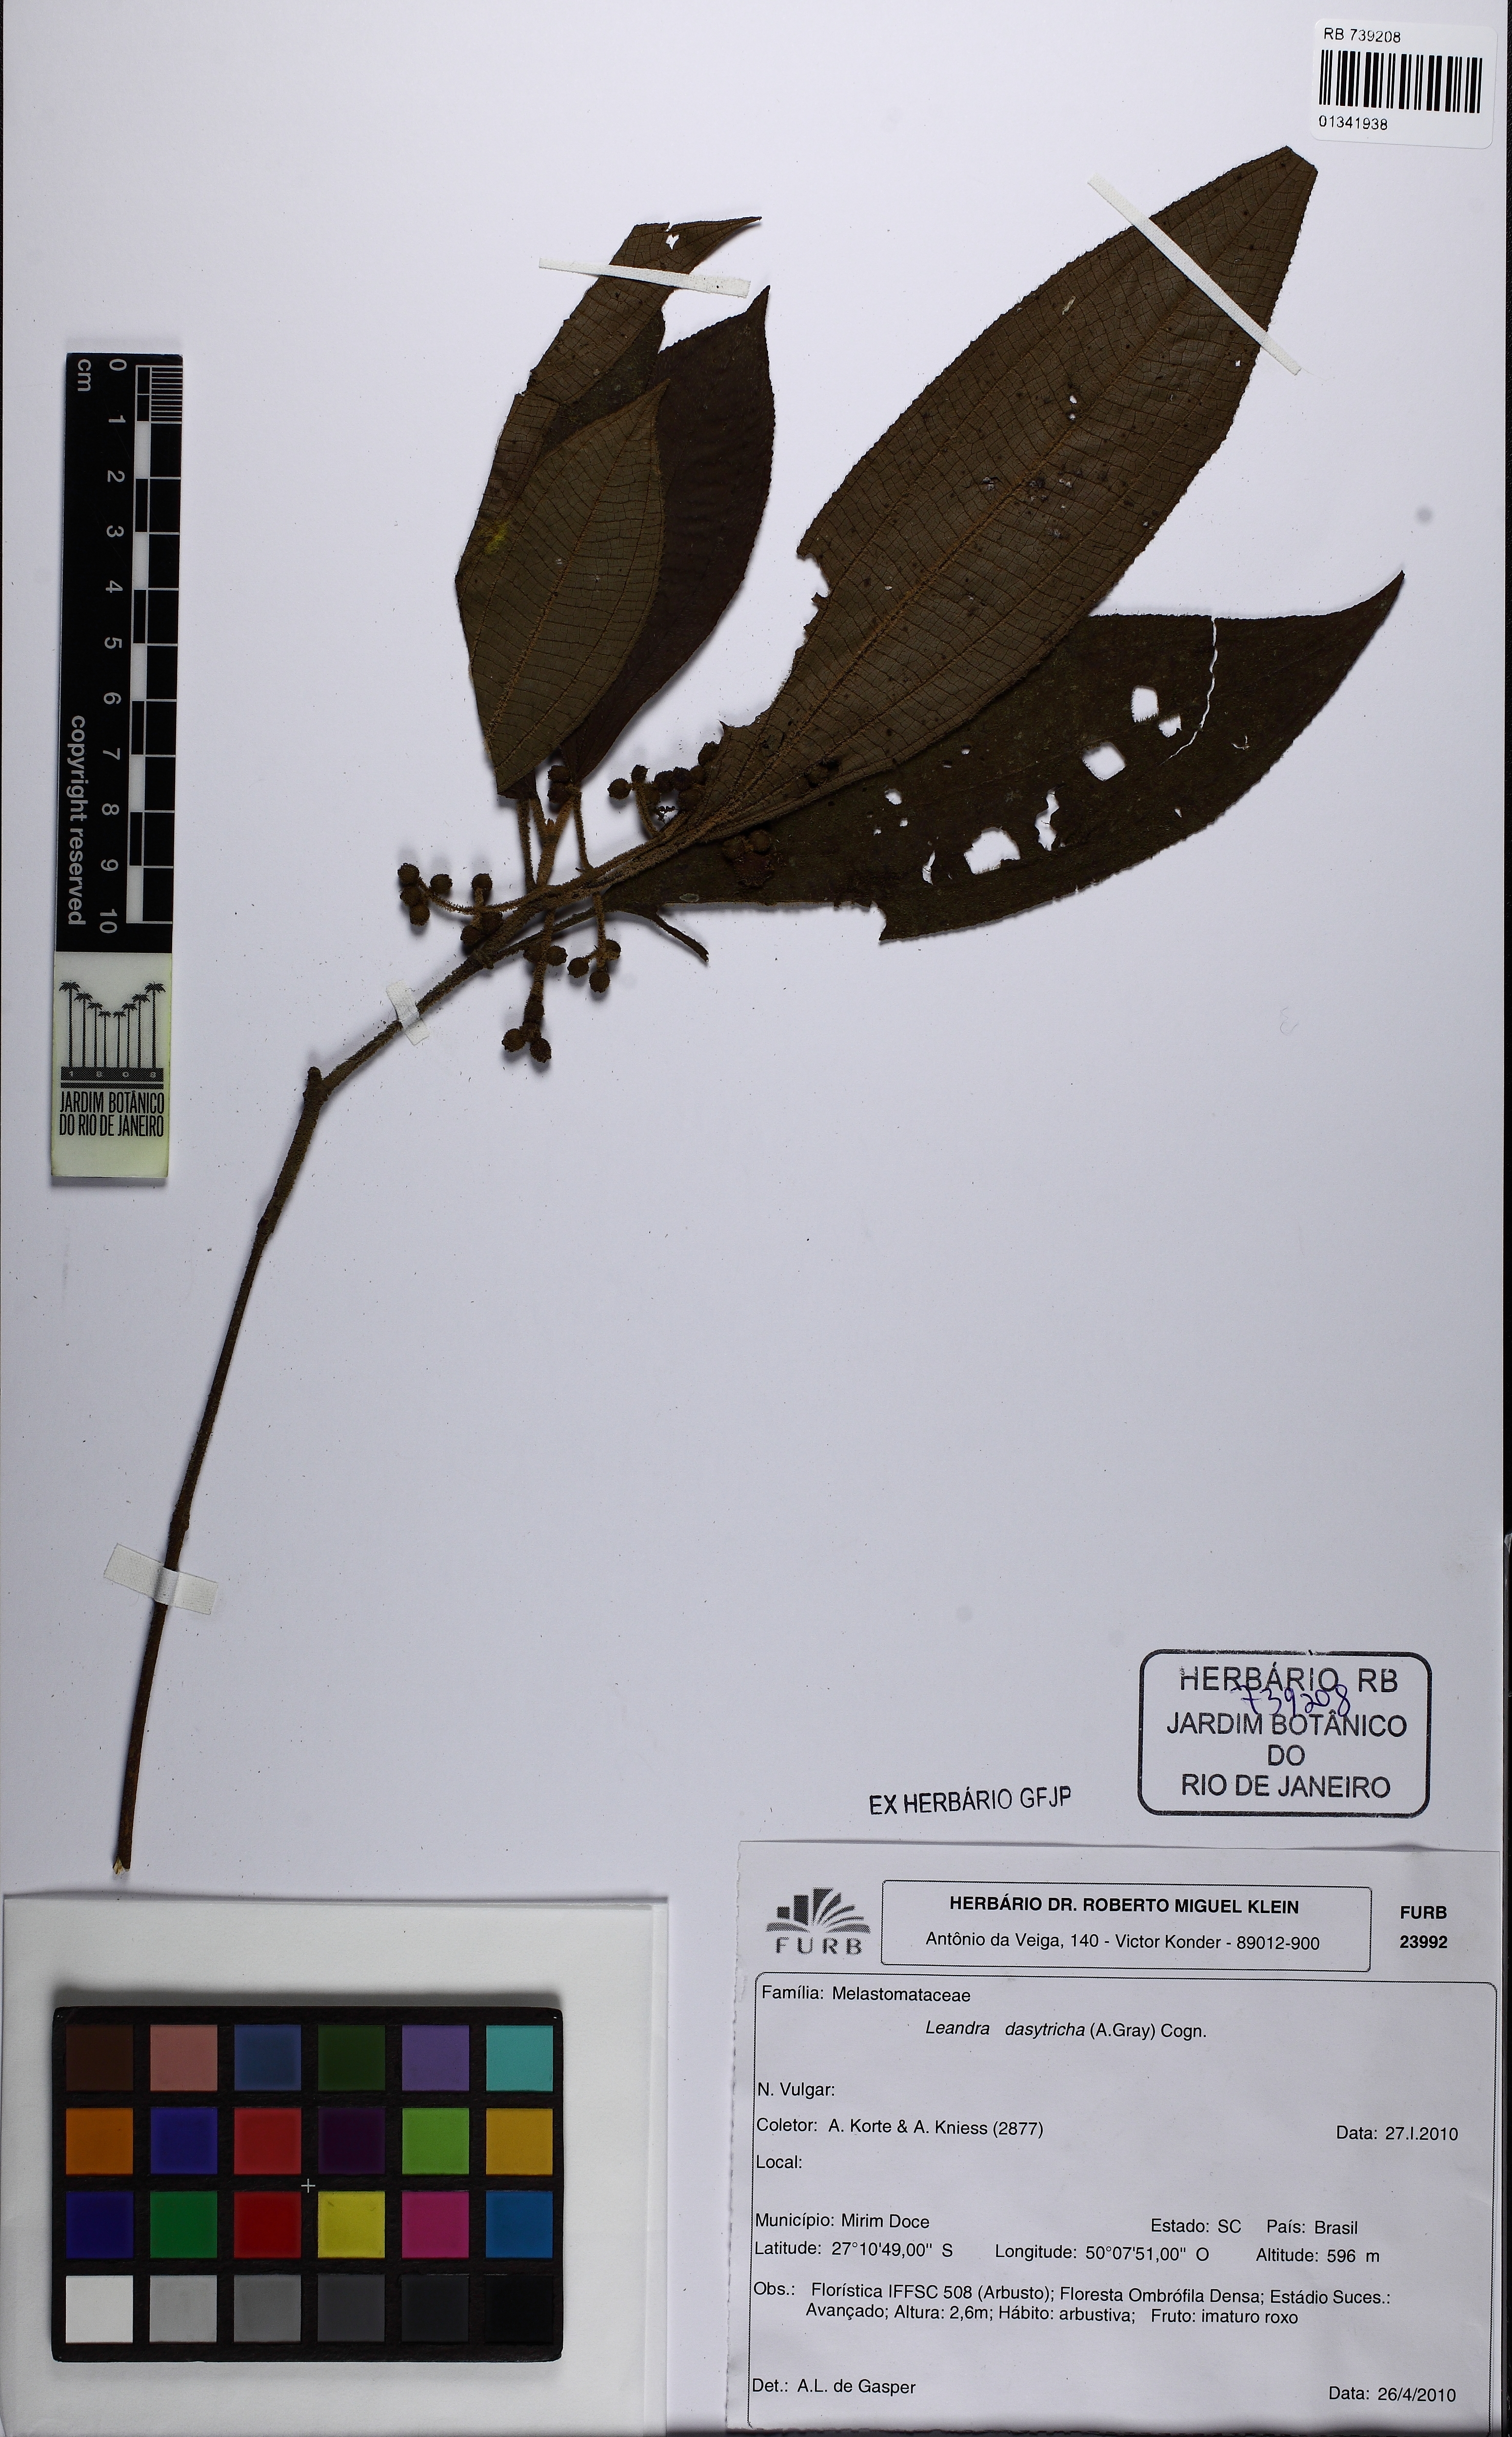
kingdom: Plantae
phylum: Tracheophyta
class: Magnoliopsida
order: Myrtales
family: Melastomataceae
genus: Miconia
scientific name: Miconia dasytricha
